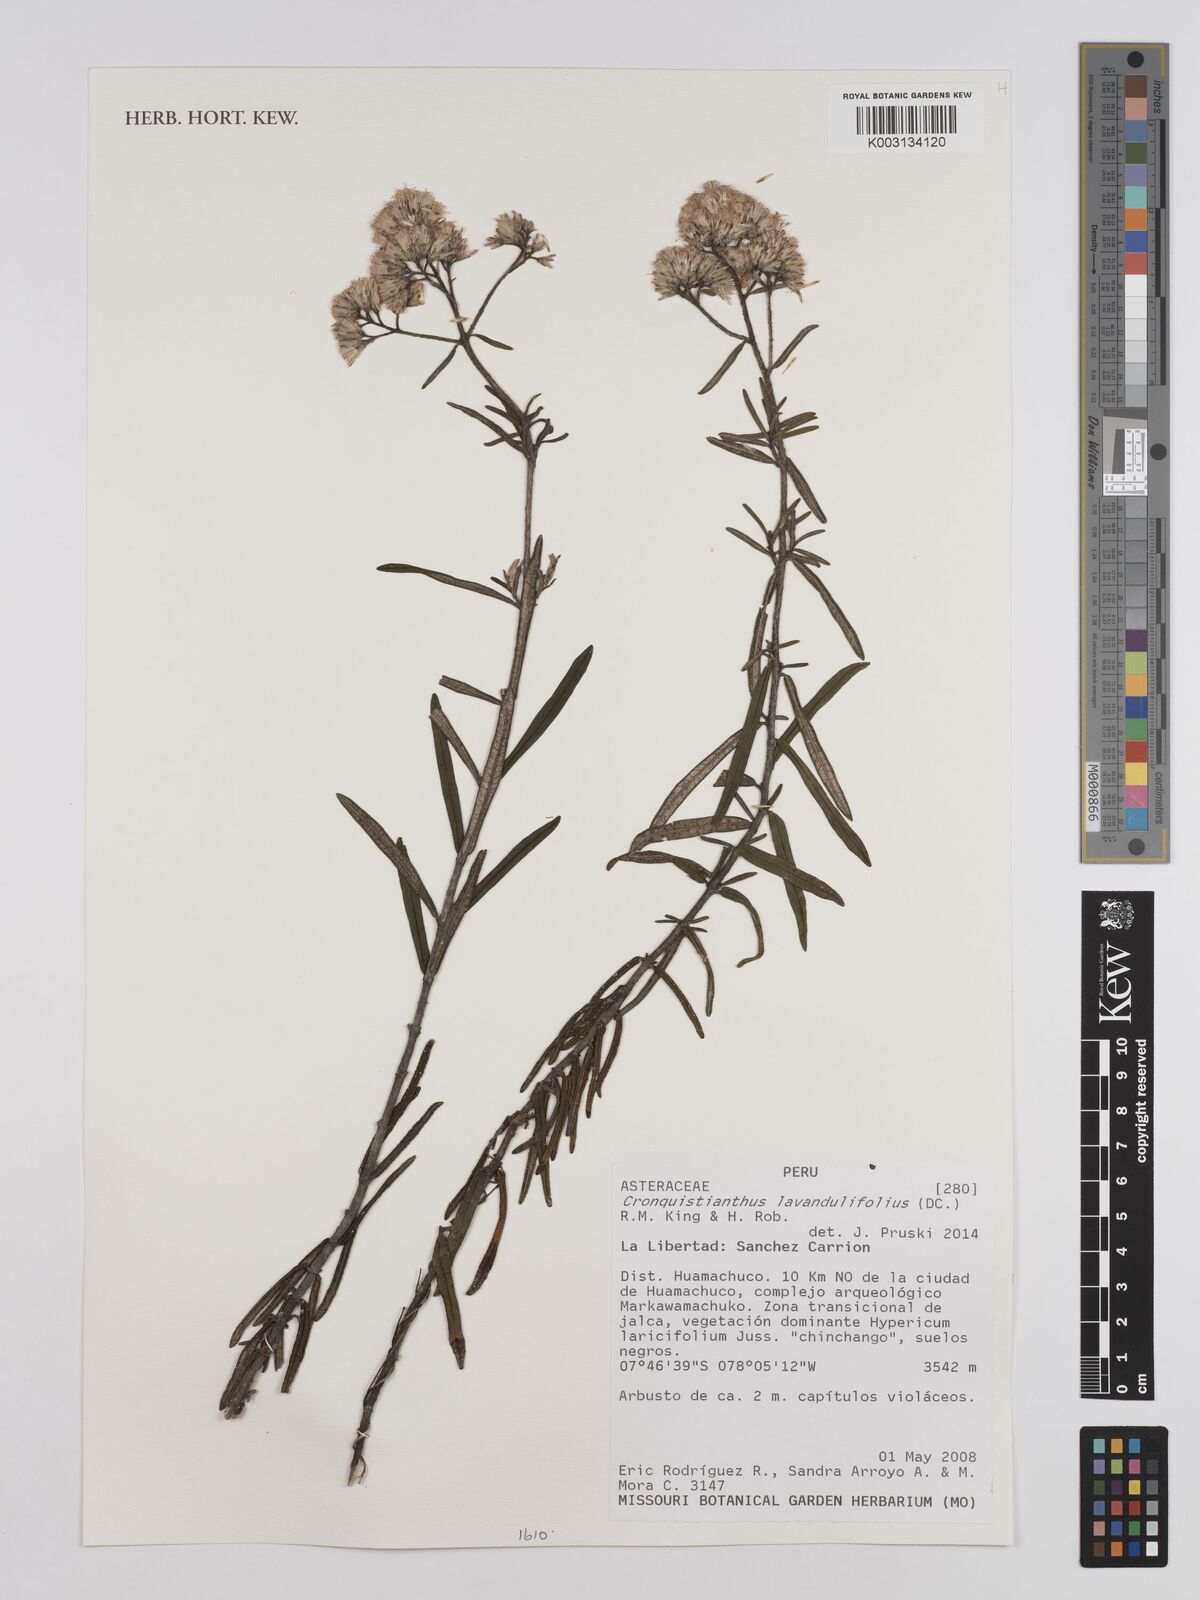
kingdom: Plantae
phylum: Tracheophyta
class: Magnoliopsida
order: Asterales
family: Asteraceae
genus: Cronquistianthus
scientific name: Cronquistianthus lavandulifolius
